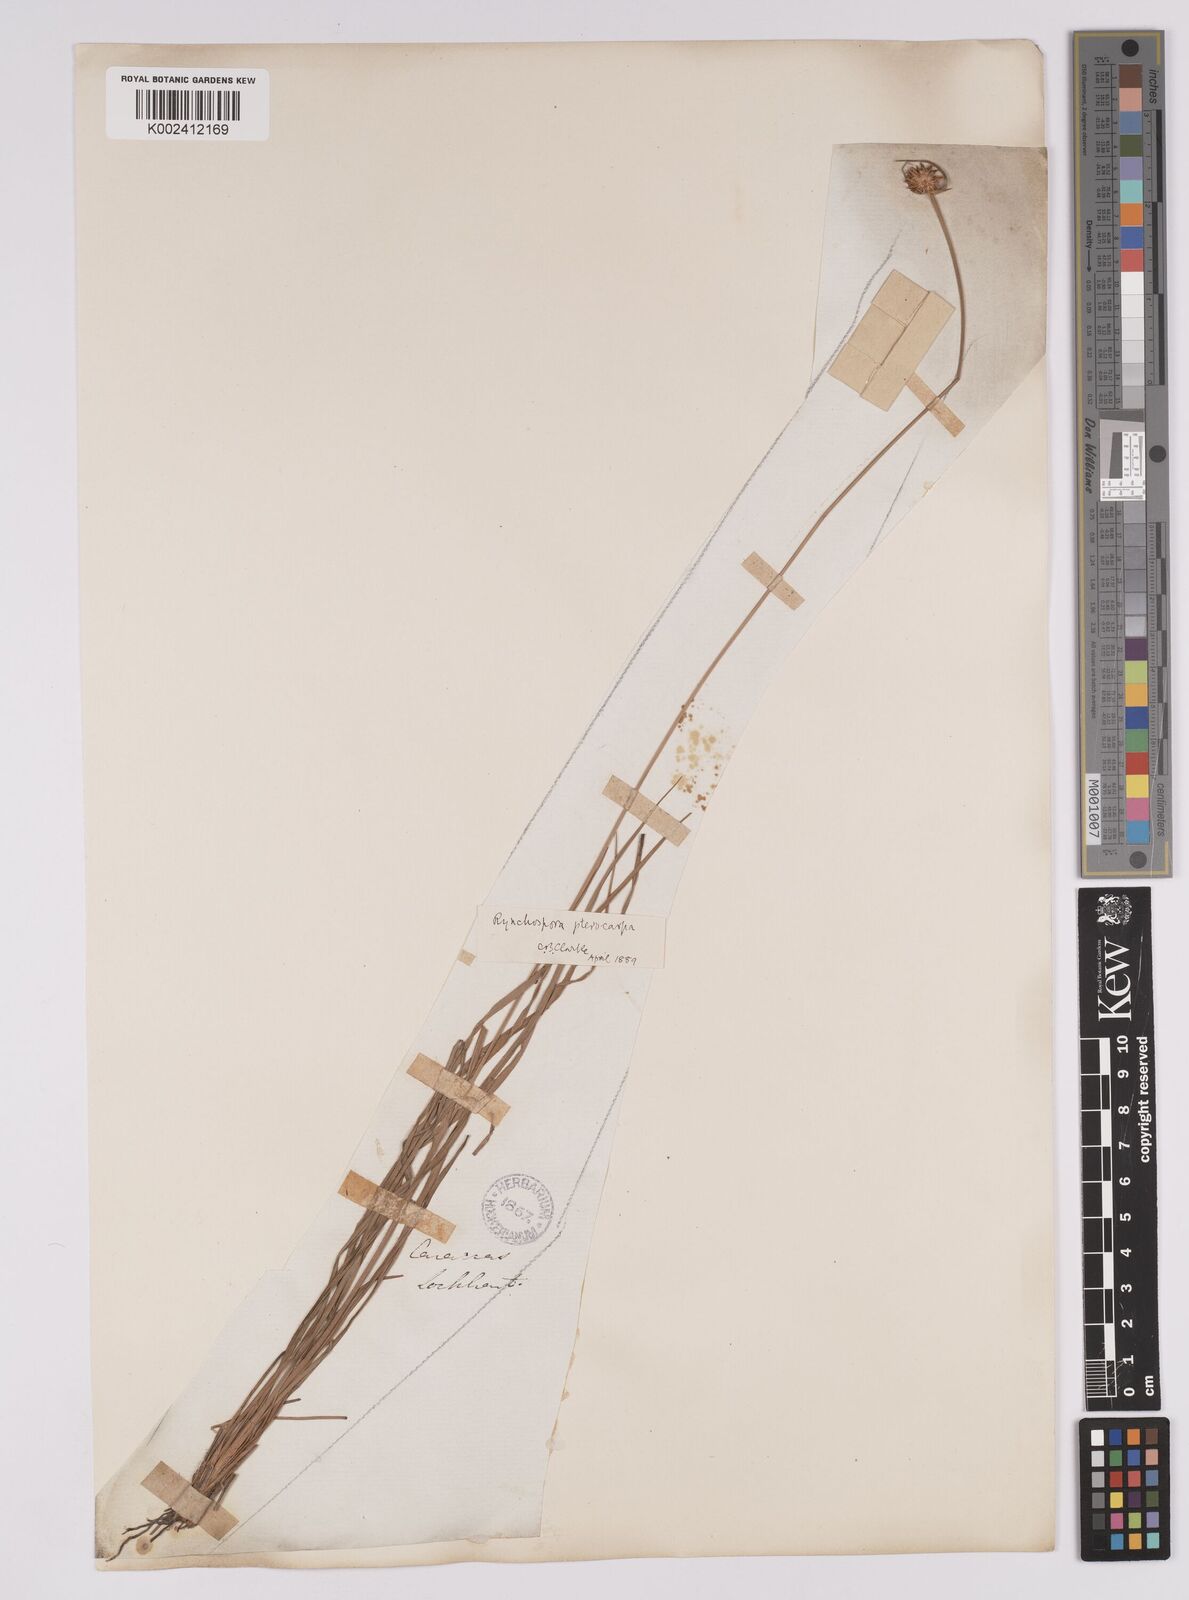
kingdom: Plantae
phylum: Tracheophyta
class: Liliopsida
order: Poales
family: Cyperaceae
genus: Rhynchospora
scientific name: Rhynchospora barbata
